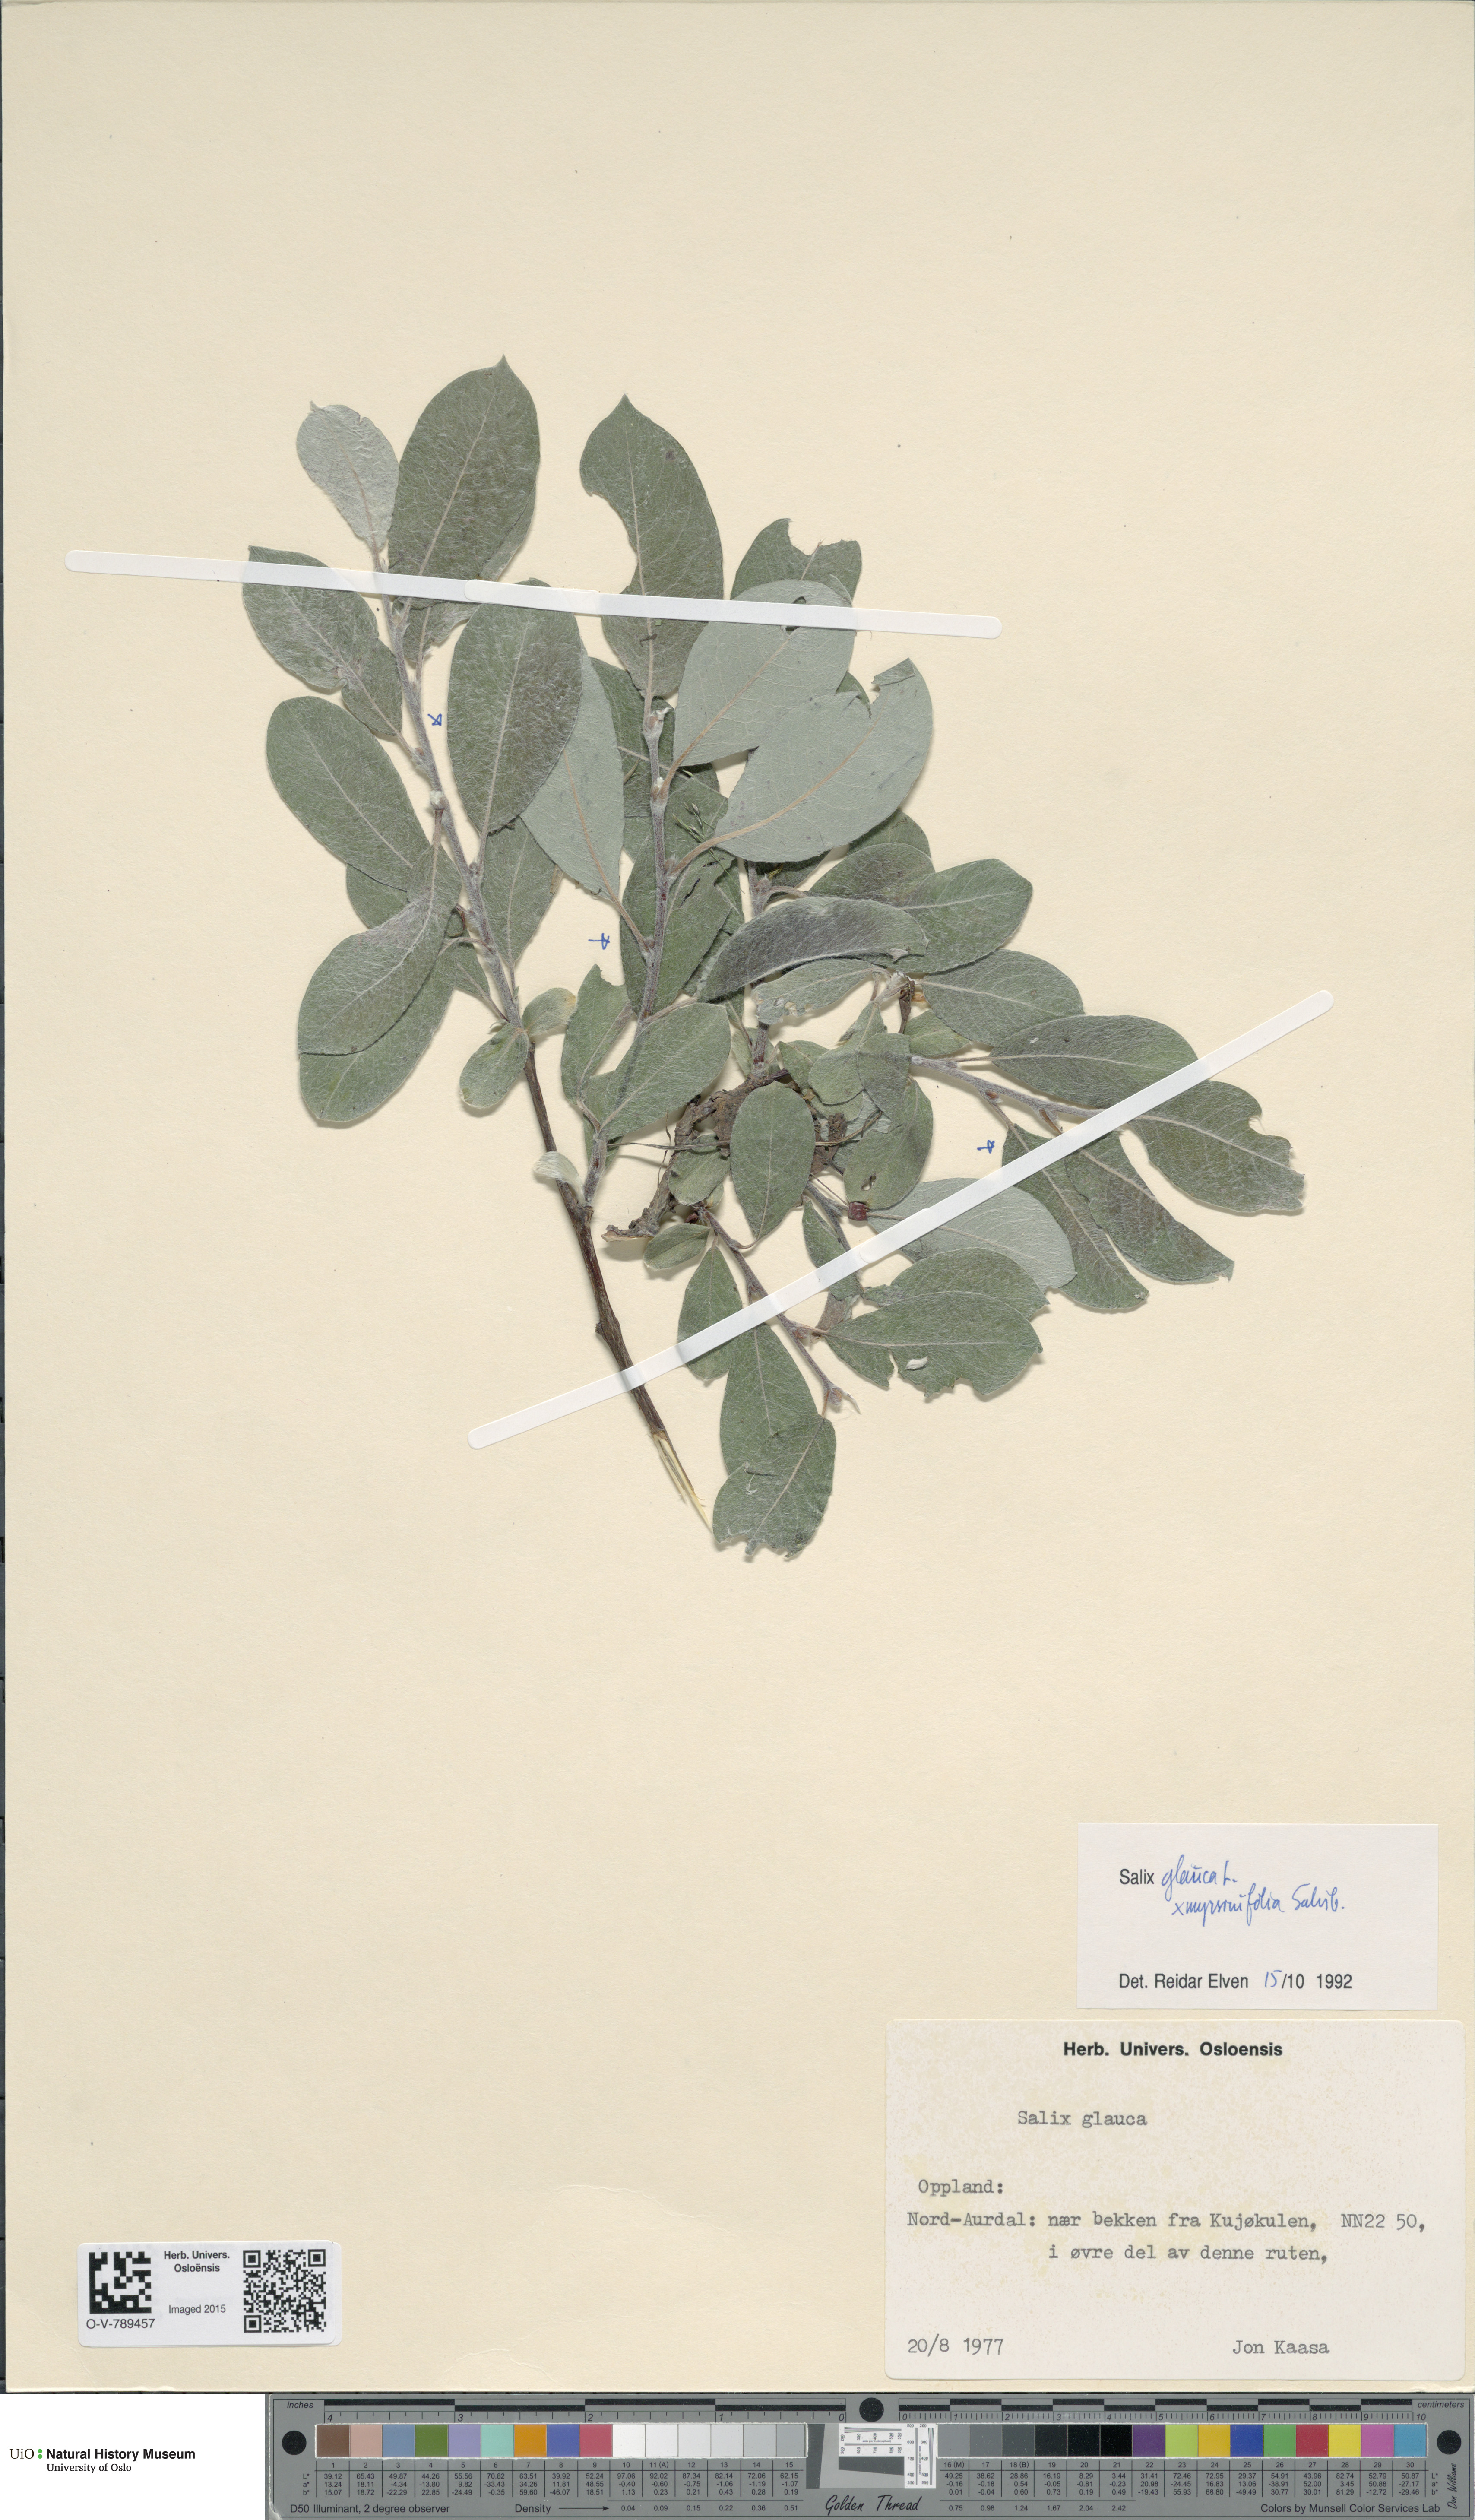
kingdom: Plantae
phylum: Tracheophyta
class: Magnoliopsida
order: Malpighiales
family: Salicaceae
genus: Salix
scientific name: Salix
